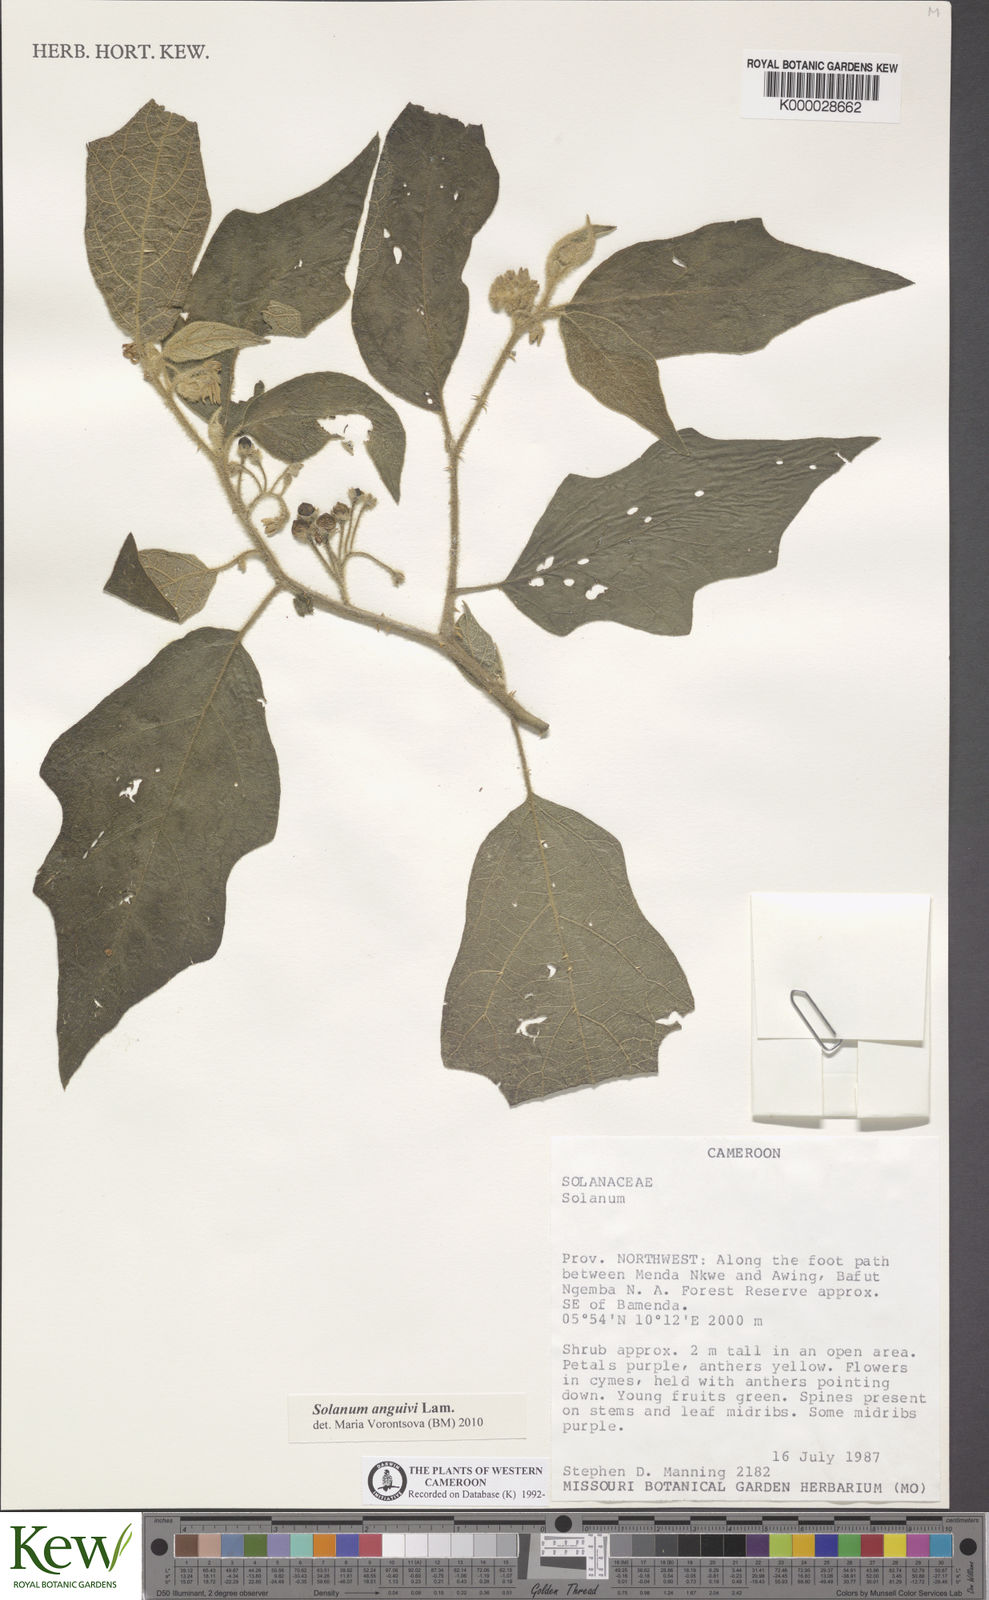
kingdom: Plantae
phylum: Tracheophyta
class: Magnoliopsida
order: Solanales
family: Solanaceae
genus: Solanum
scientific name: Solanum anguivi
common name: Forest bitterberry
